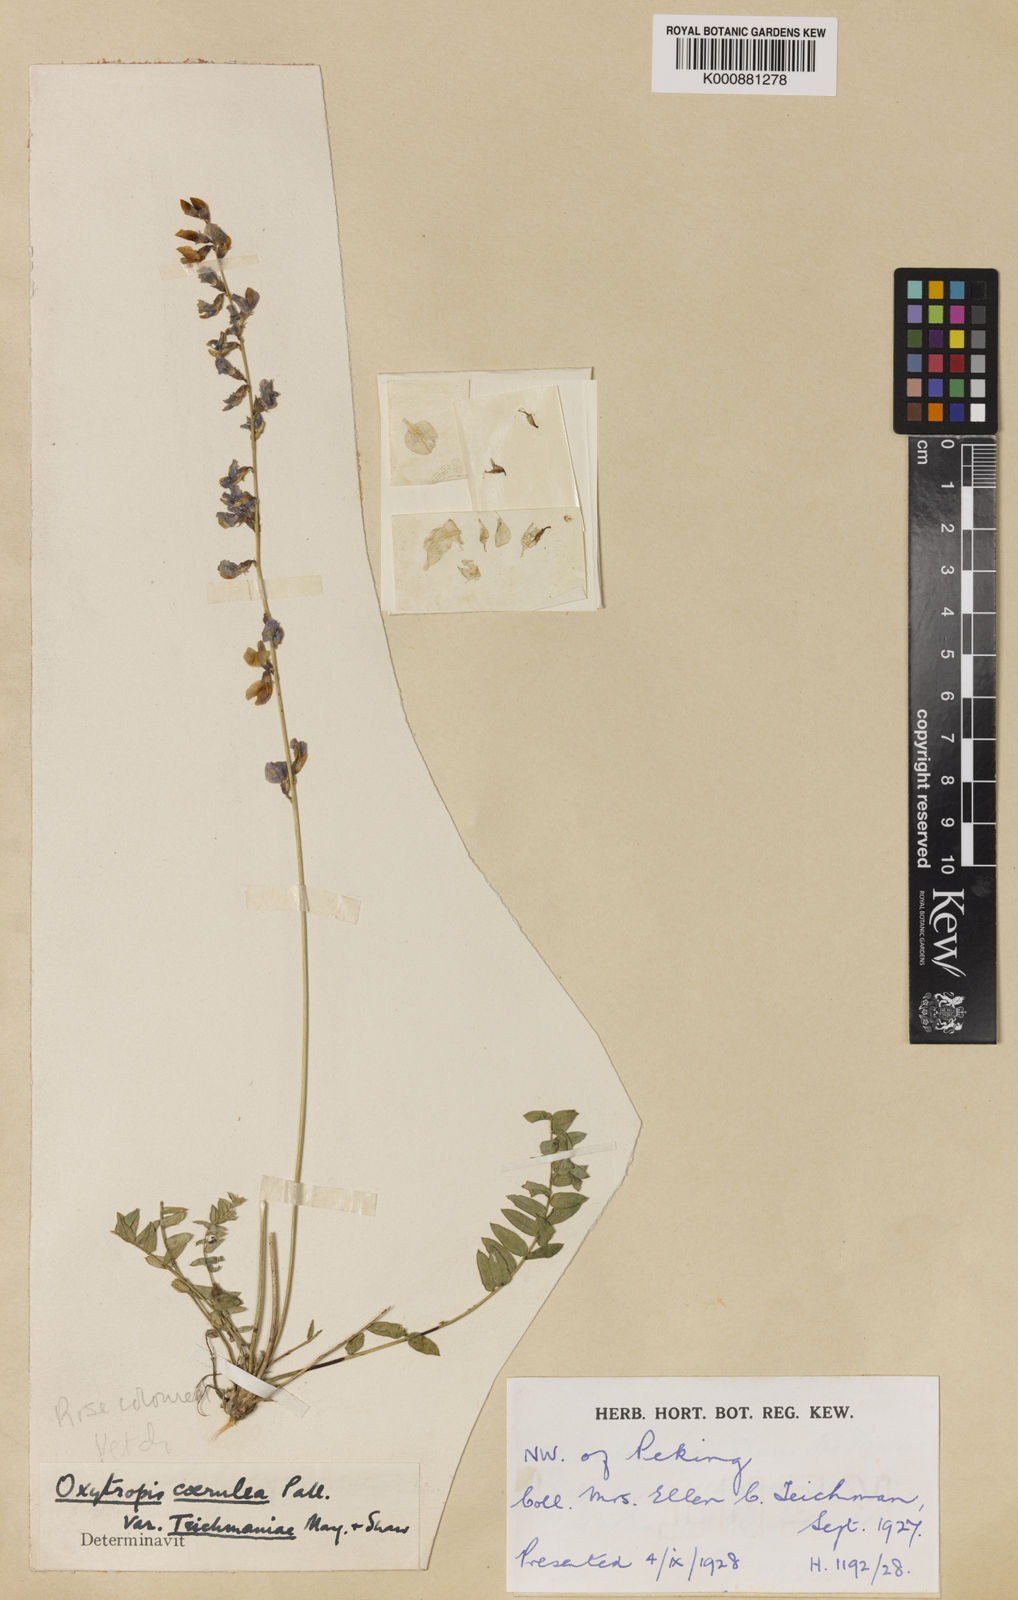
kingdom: Plantae
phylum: Tracheophyta
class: Magnoliopsida
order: Fabales
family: Fabaceae
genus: Oxytropis
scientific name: Oxytropis
